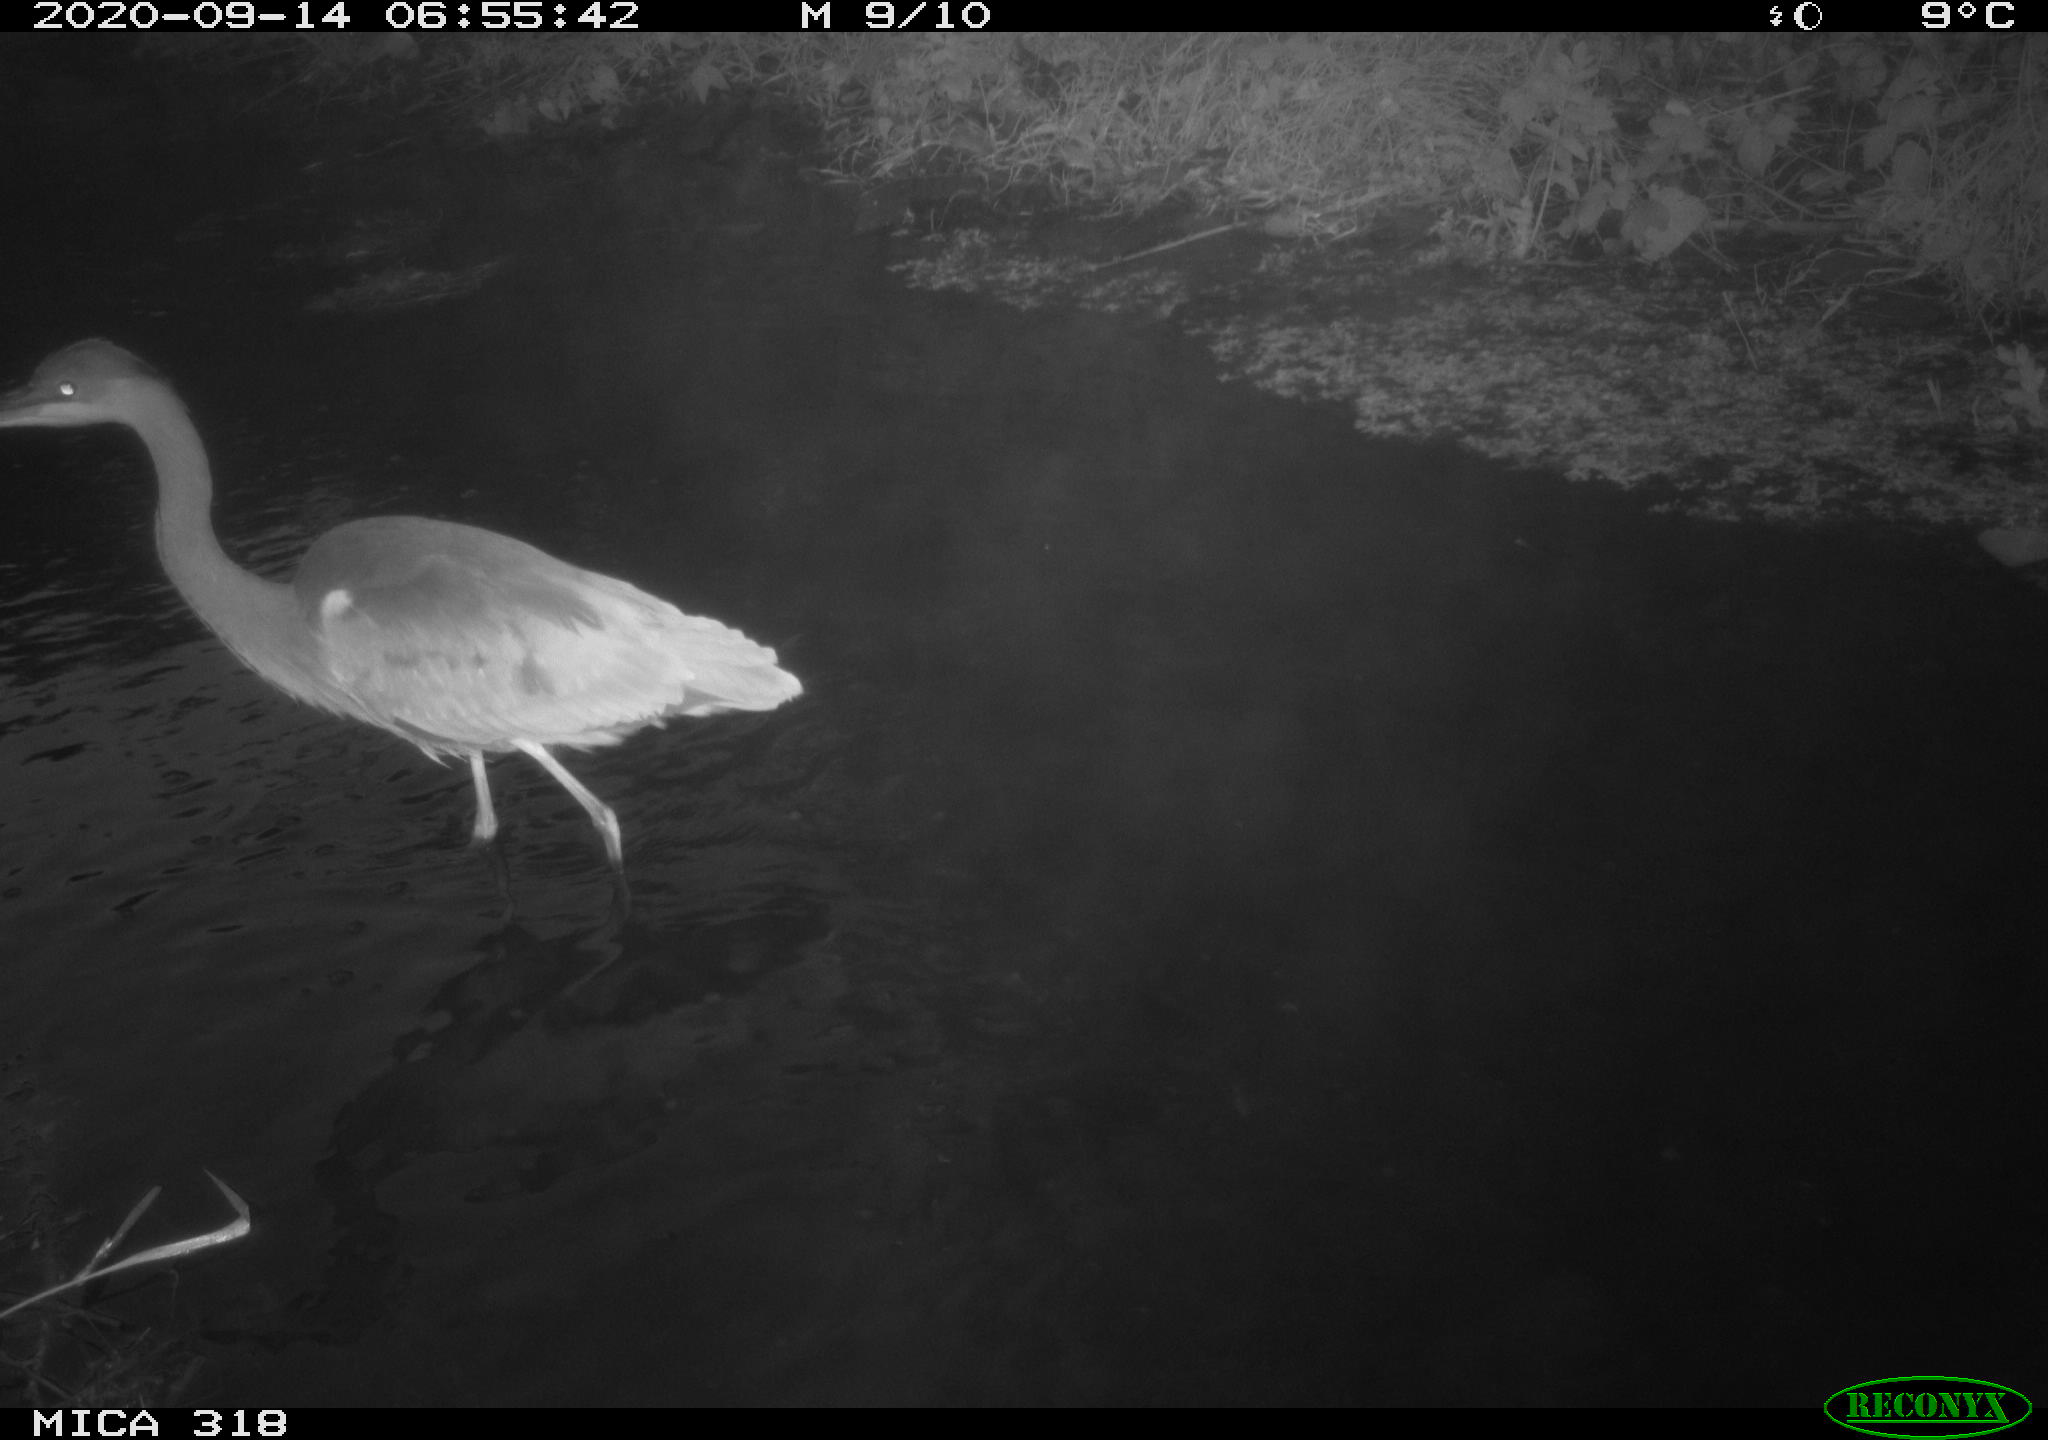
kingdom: Animalia
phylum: Chordata
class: Aves
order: Pelecaniformes
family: Ardeidae
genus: Ardea
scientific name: Ardea
